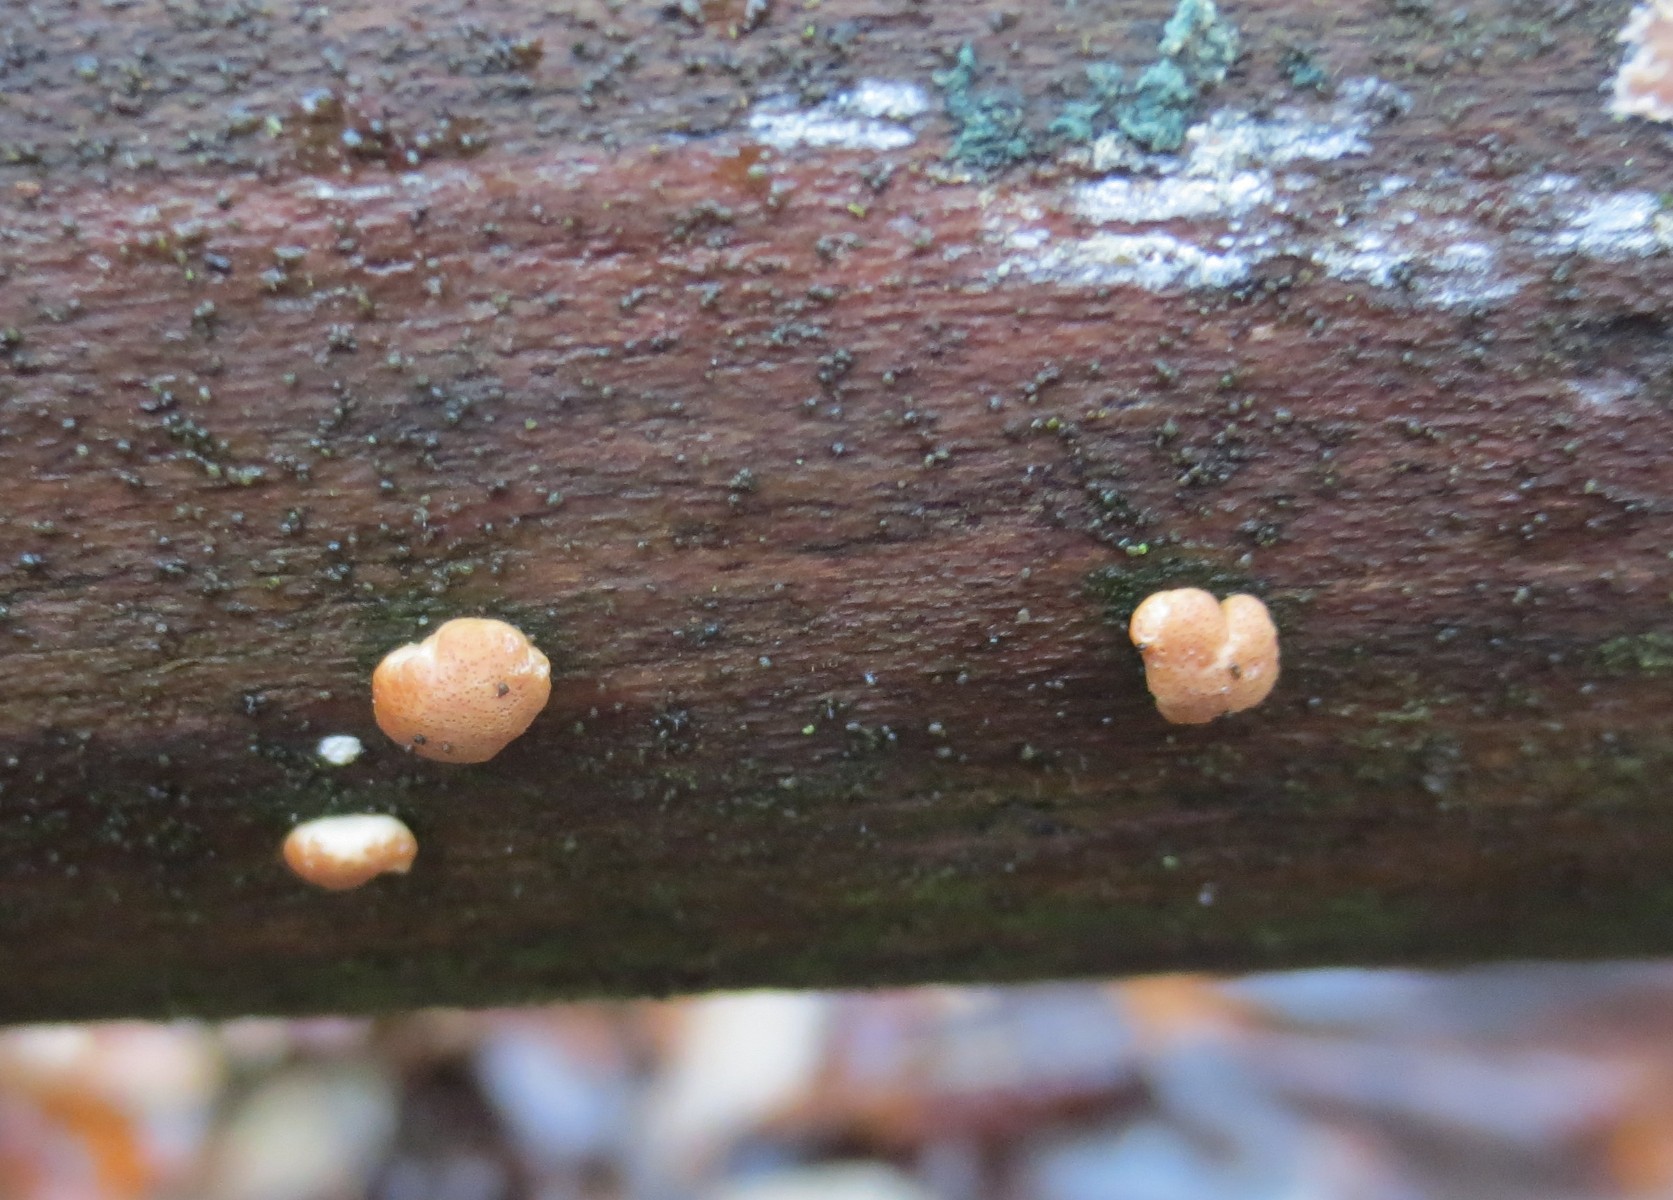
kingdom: Fungi
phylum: Ascomycota
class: Sordariomycetes
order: Hypocreales
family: Hypocreaceae
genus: Trichoderma
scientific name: Trichoderma europaeum
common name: rosabrun kødkerne
